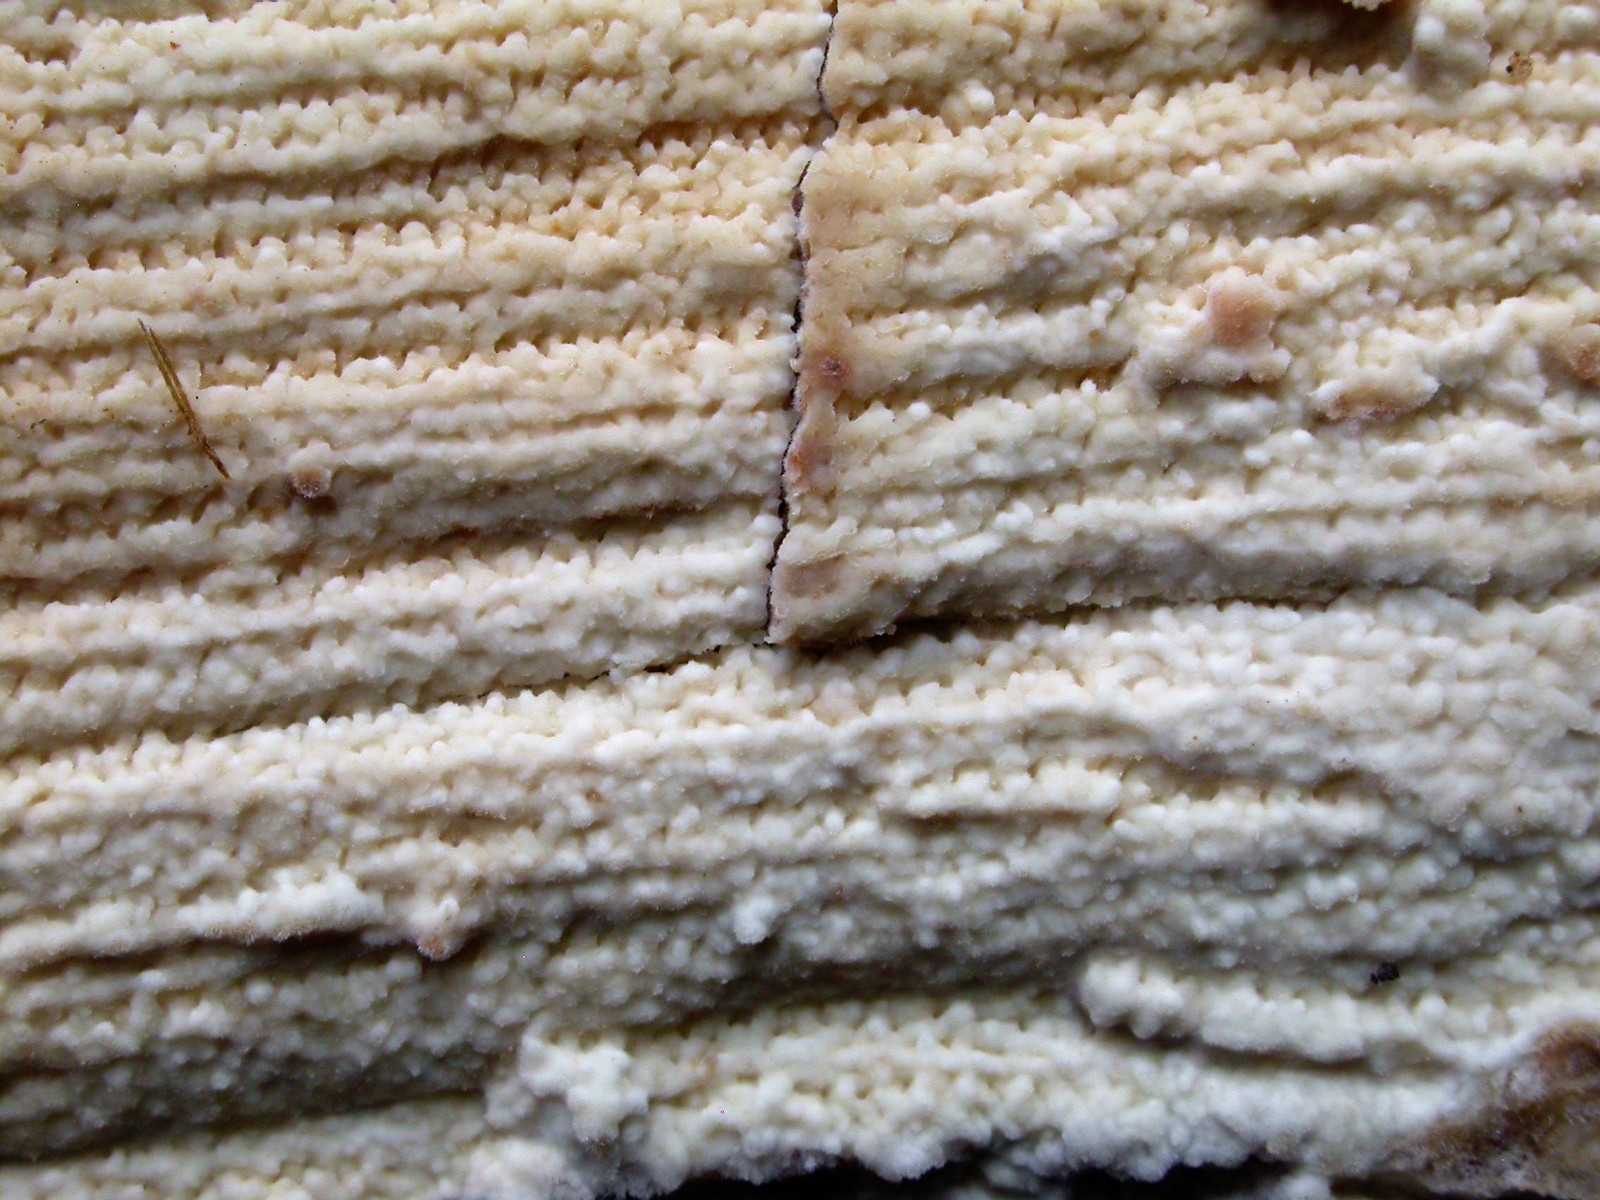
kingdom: Fungi
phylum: Basidiomycota
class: Agaricomycetes
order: Polyporales
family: Irpicaceae
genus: Crystallicutis
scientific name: Crystallicutis serpens
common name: gråviolet barkhinde
